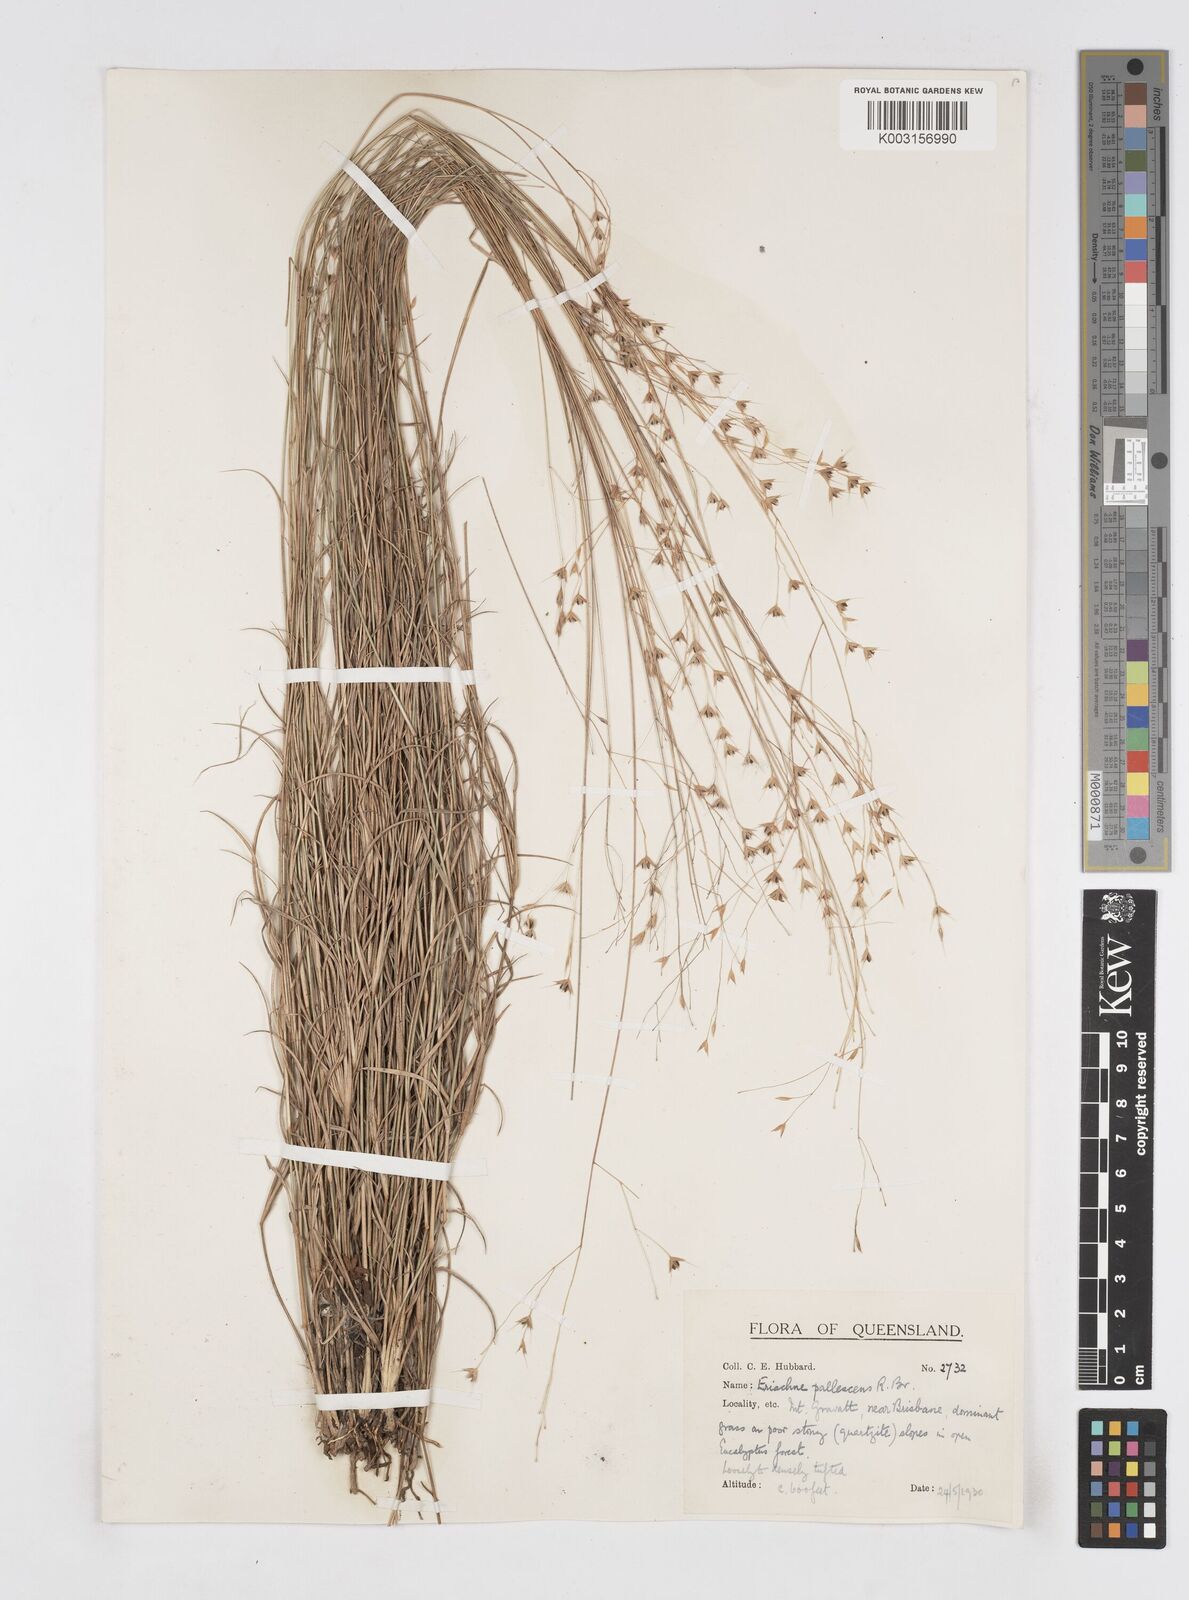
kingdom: Plantae
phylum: Tracheophyta
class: Liliopsida
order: Poales
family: Poaceae
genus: Eriachne
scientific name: Eriachne pallescens
